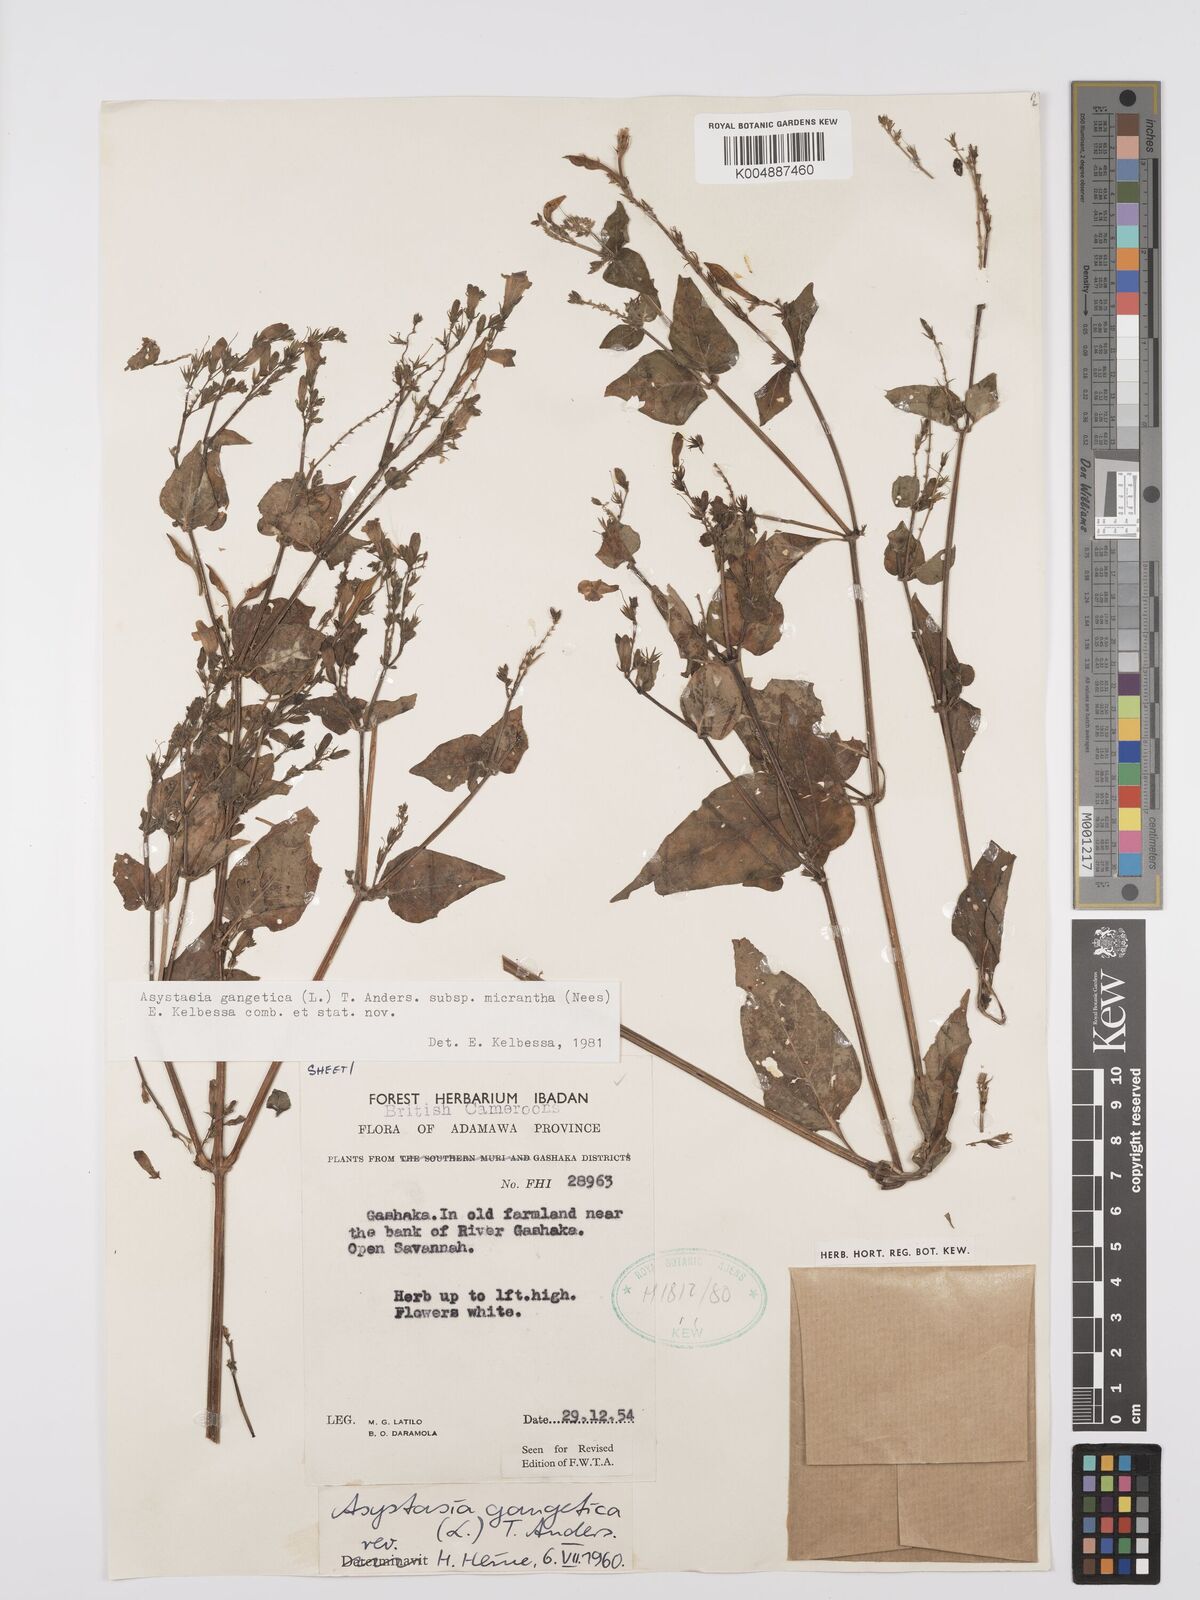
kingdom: Plantae
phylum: Tracheophyta
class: Magnoliopsida
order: Lamiales
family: Acanthaceae
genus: Asystasia
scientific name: Asystasia intrusa
